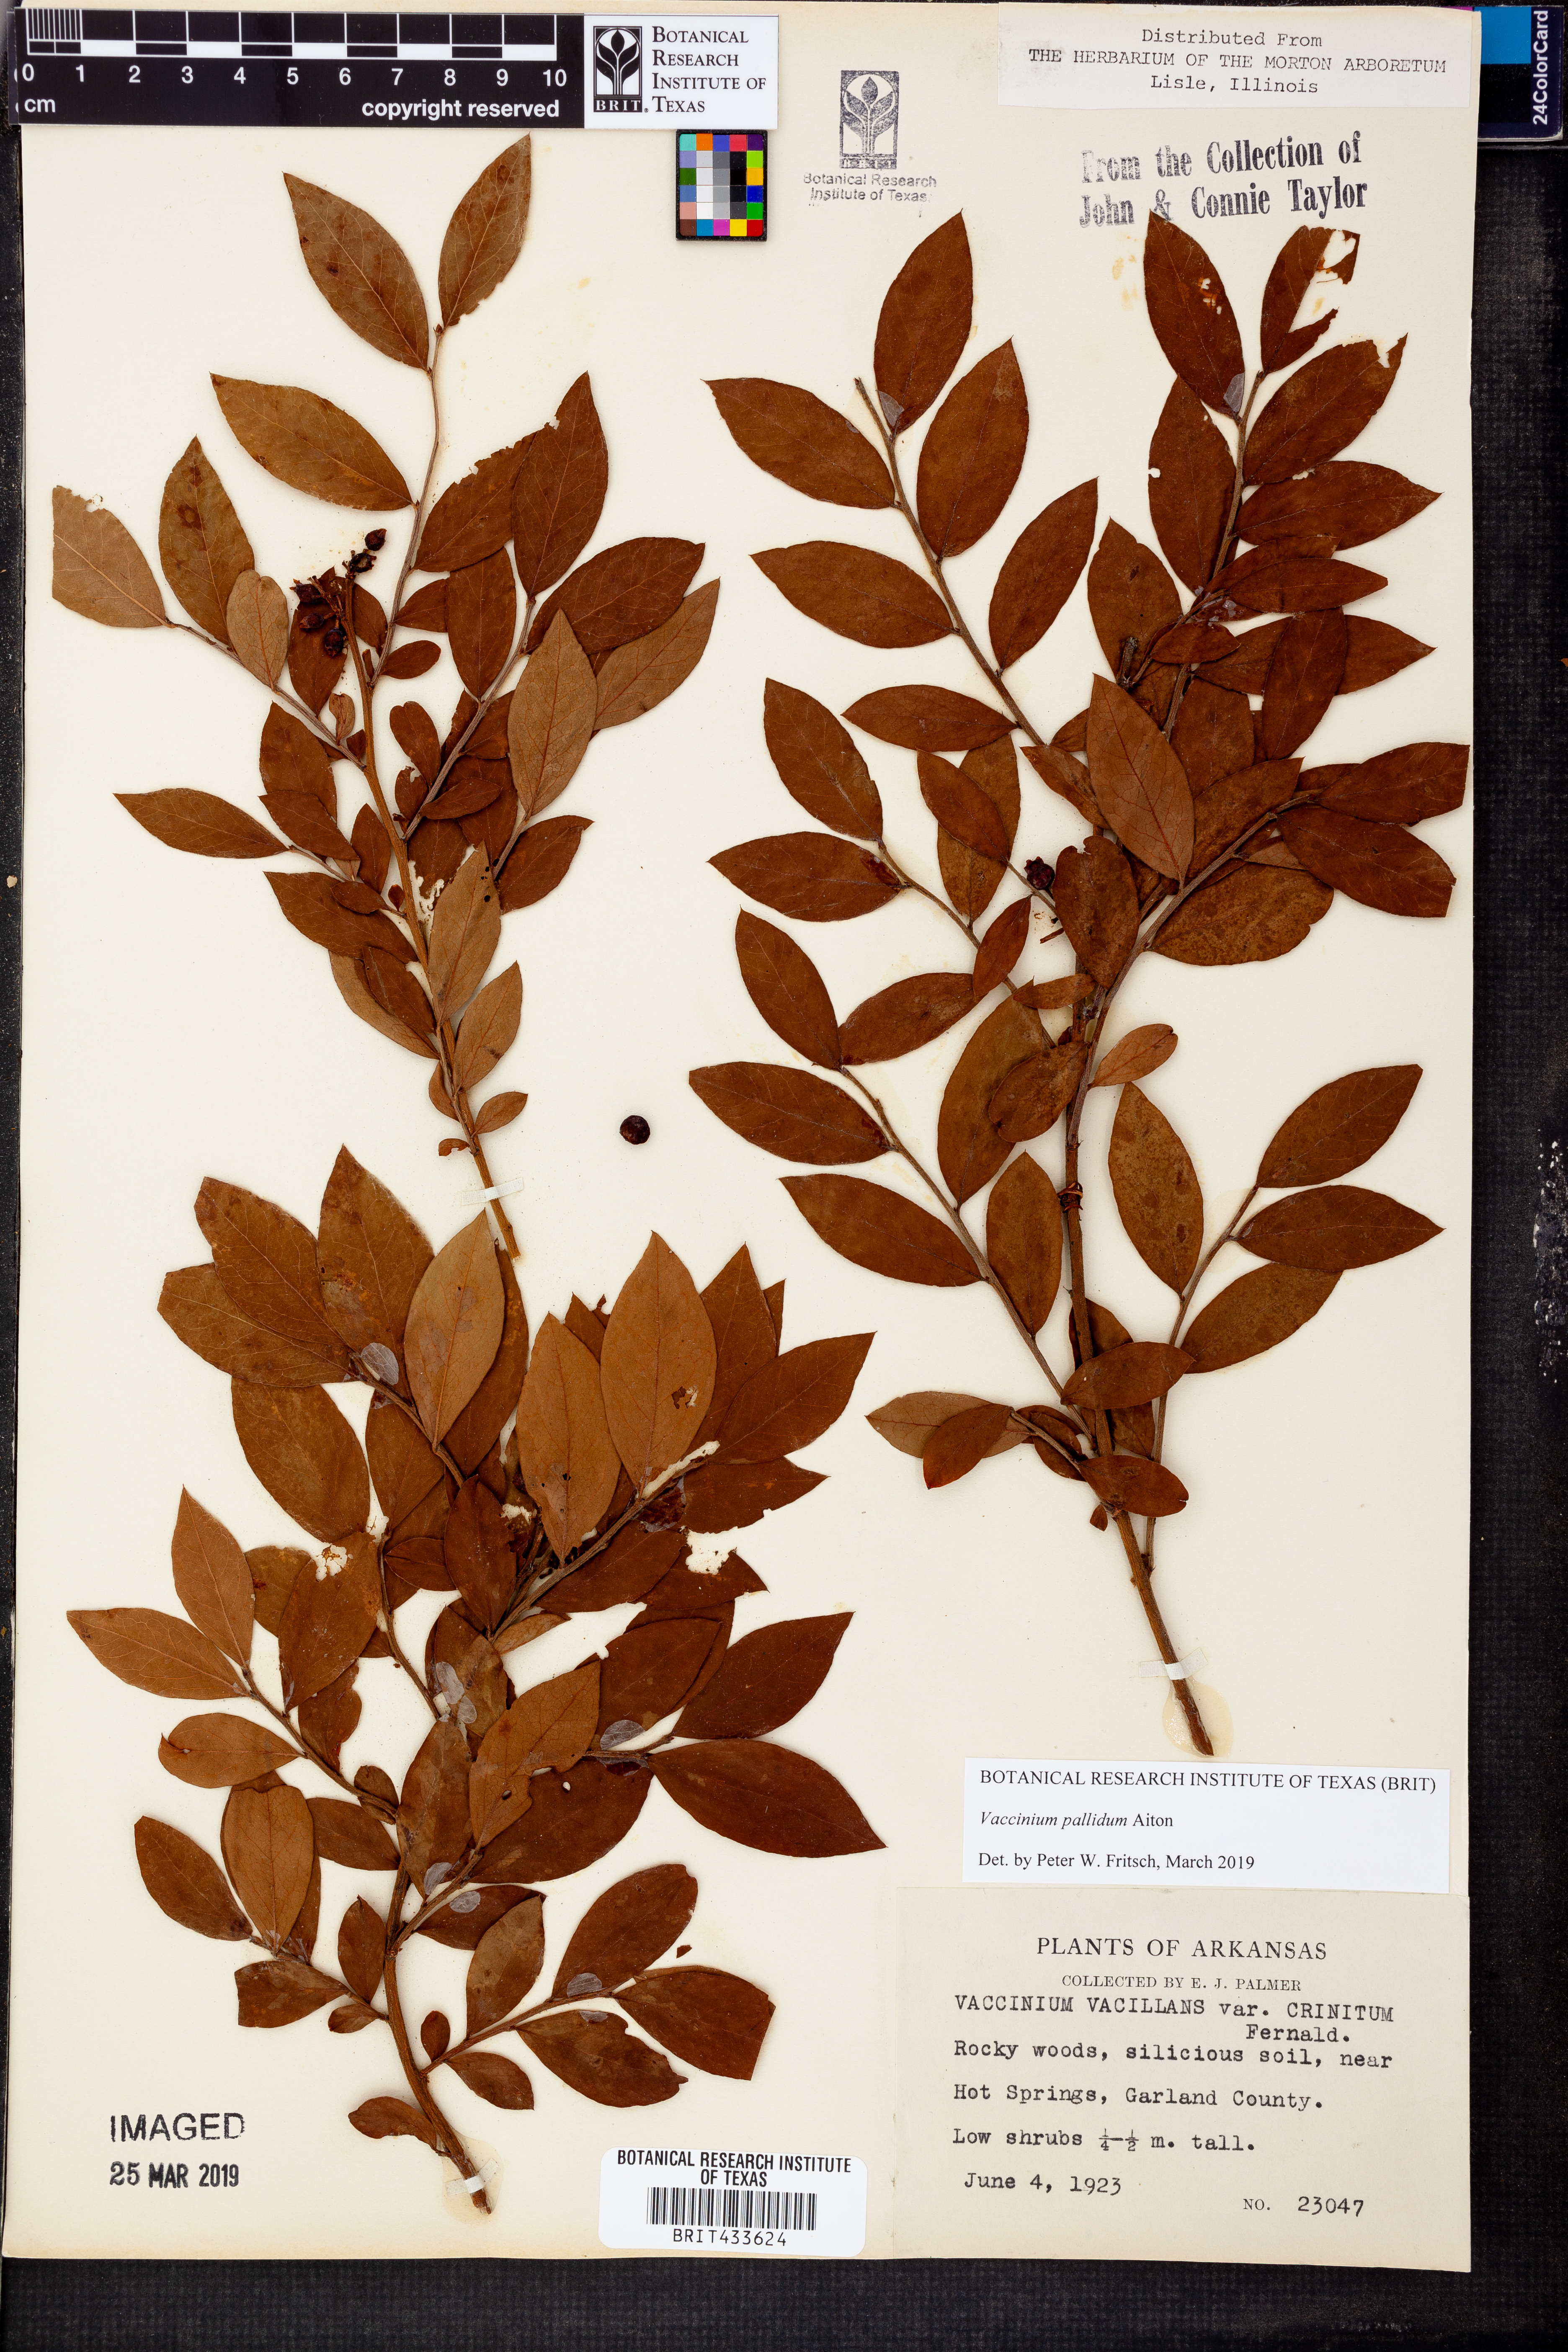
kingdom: Plantae
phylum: Tracheophyta
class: Magnoliopsida
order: Ericales
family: Ericaceae
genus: Vaccinium
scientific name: Vaccinium pallidum
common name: Blue ridge blueberry
